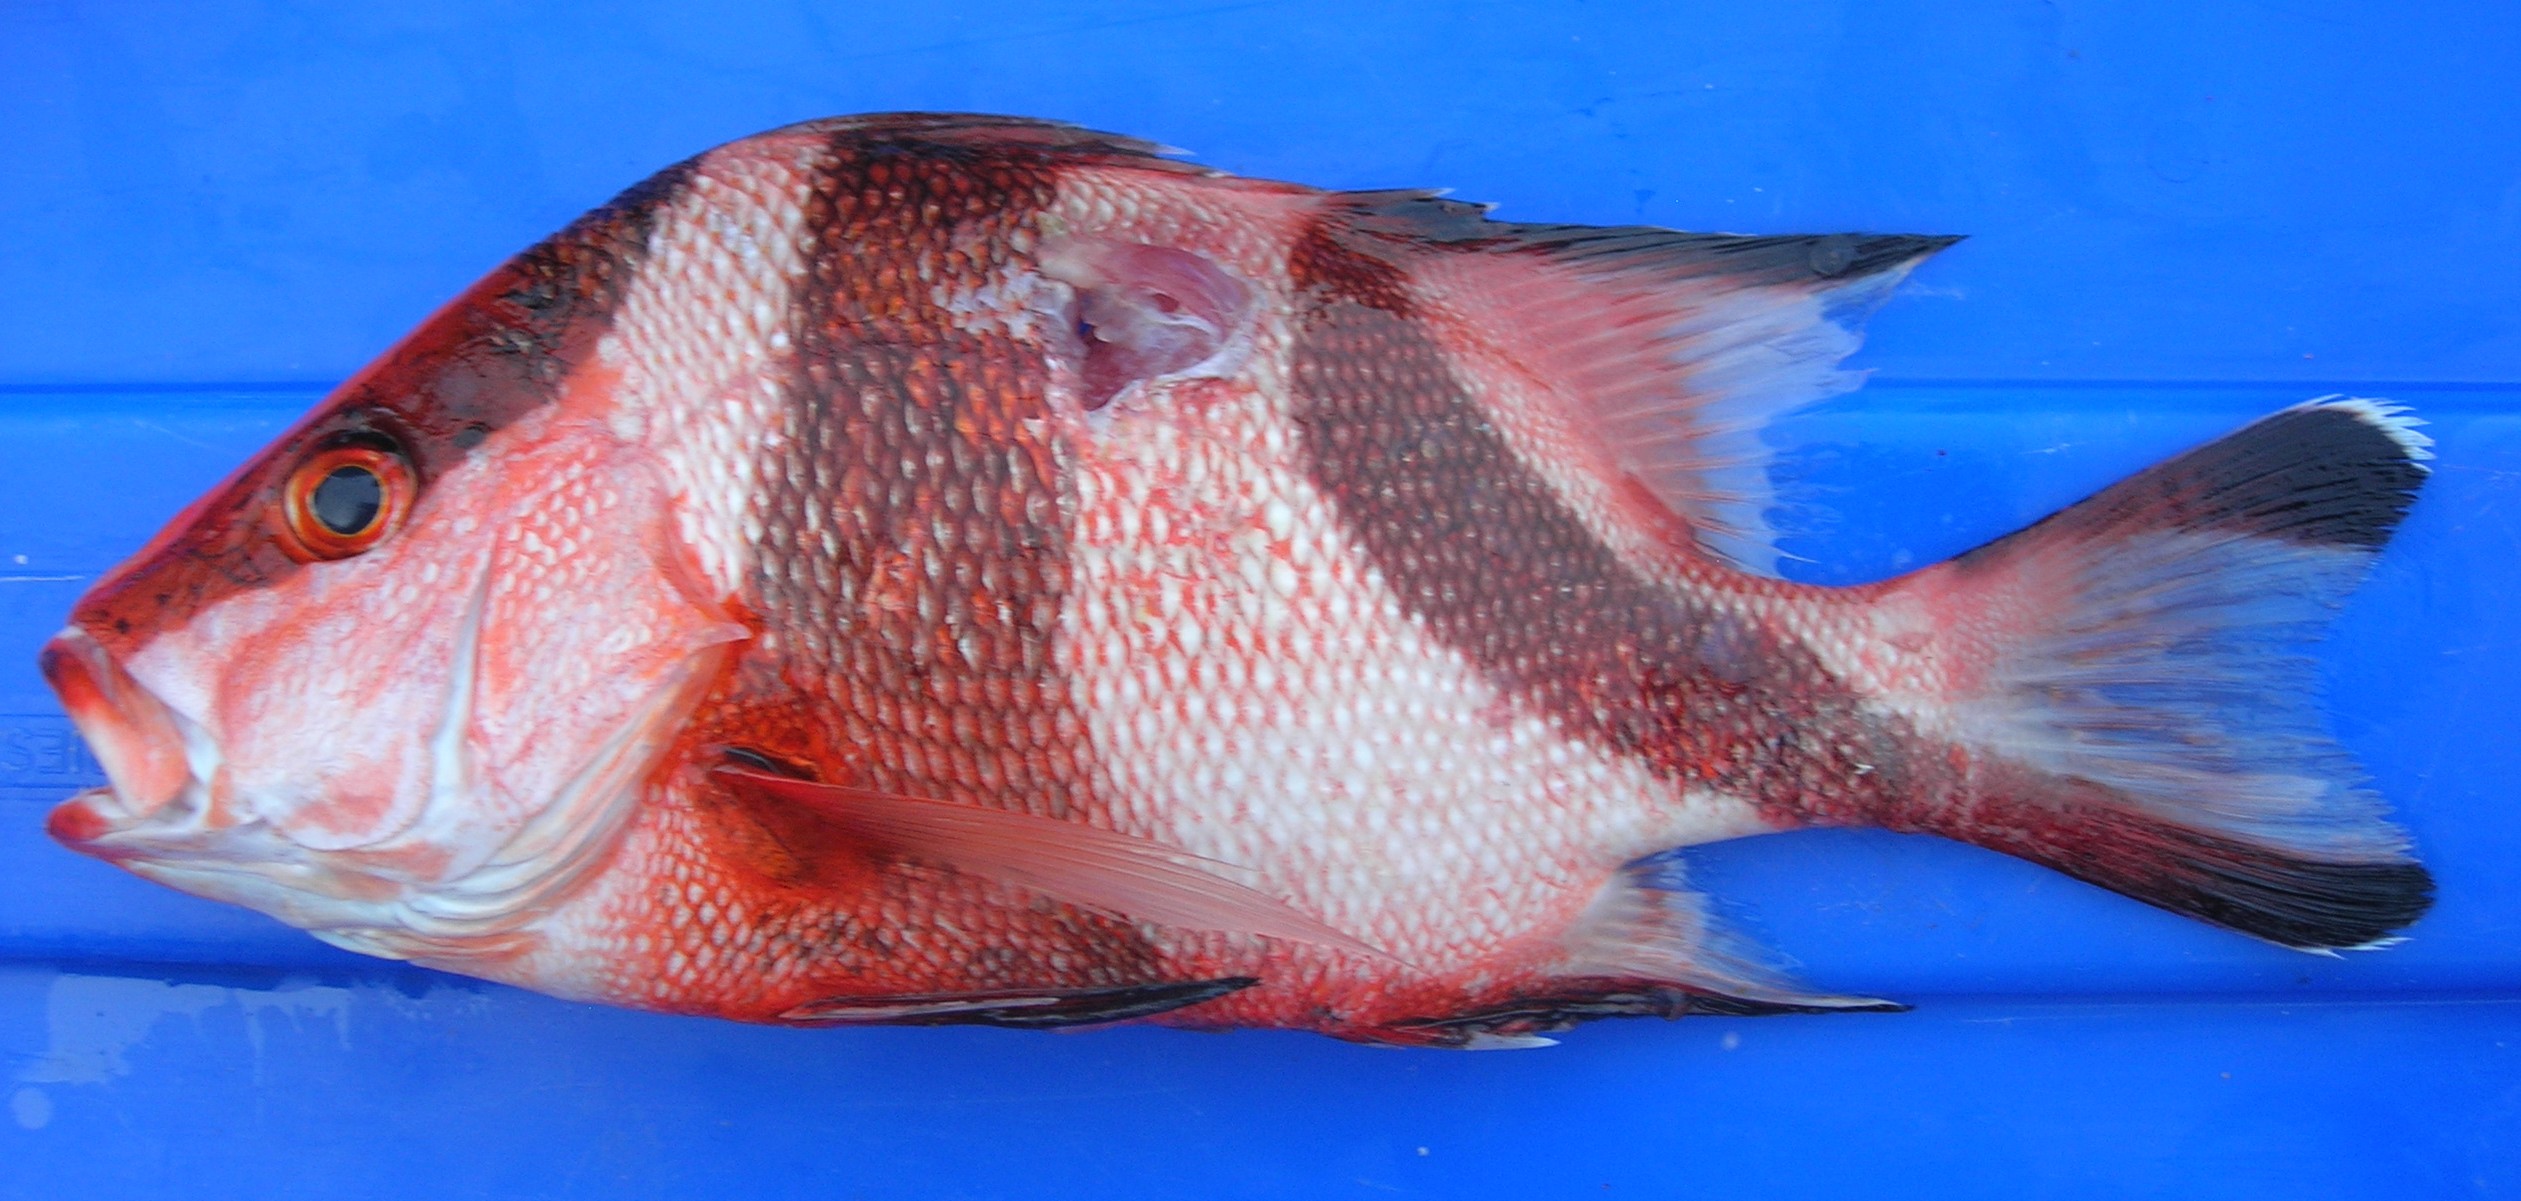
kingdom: Animalia
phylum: Chordata
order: Perciformes
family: Lutjanidae
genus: Lutjanus
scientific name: Lutjanus sebae
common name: Emperor red snapper
